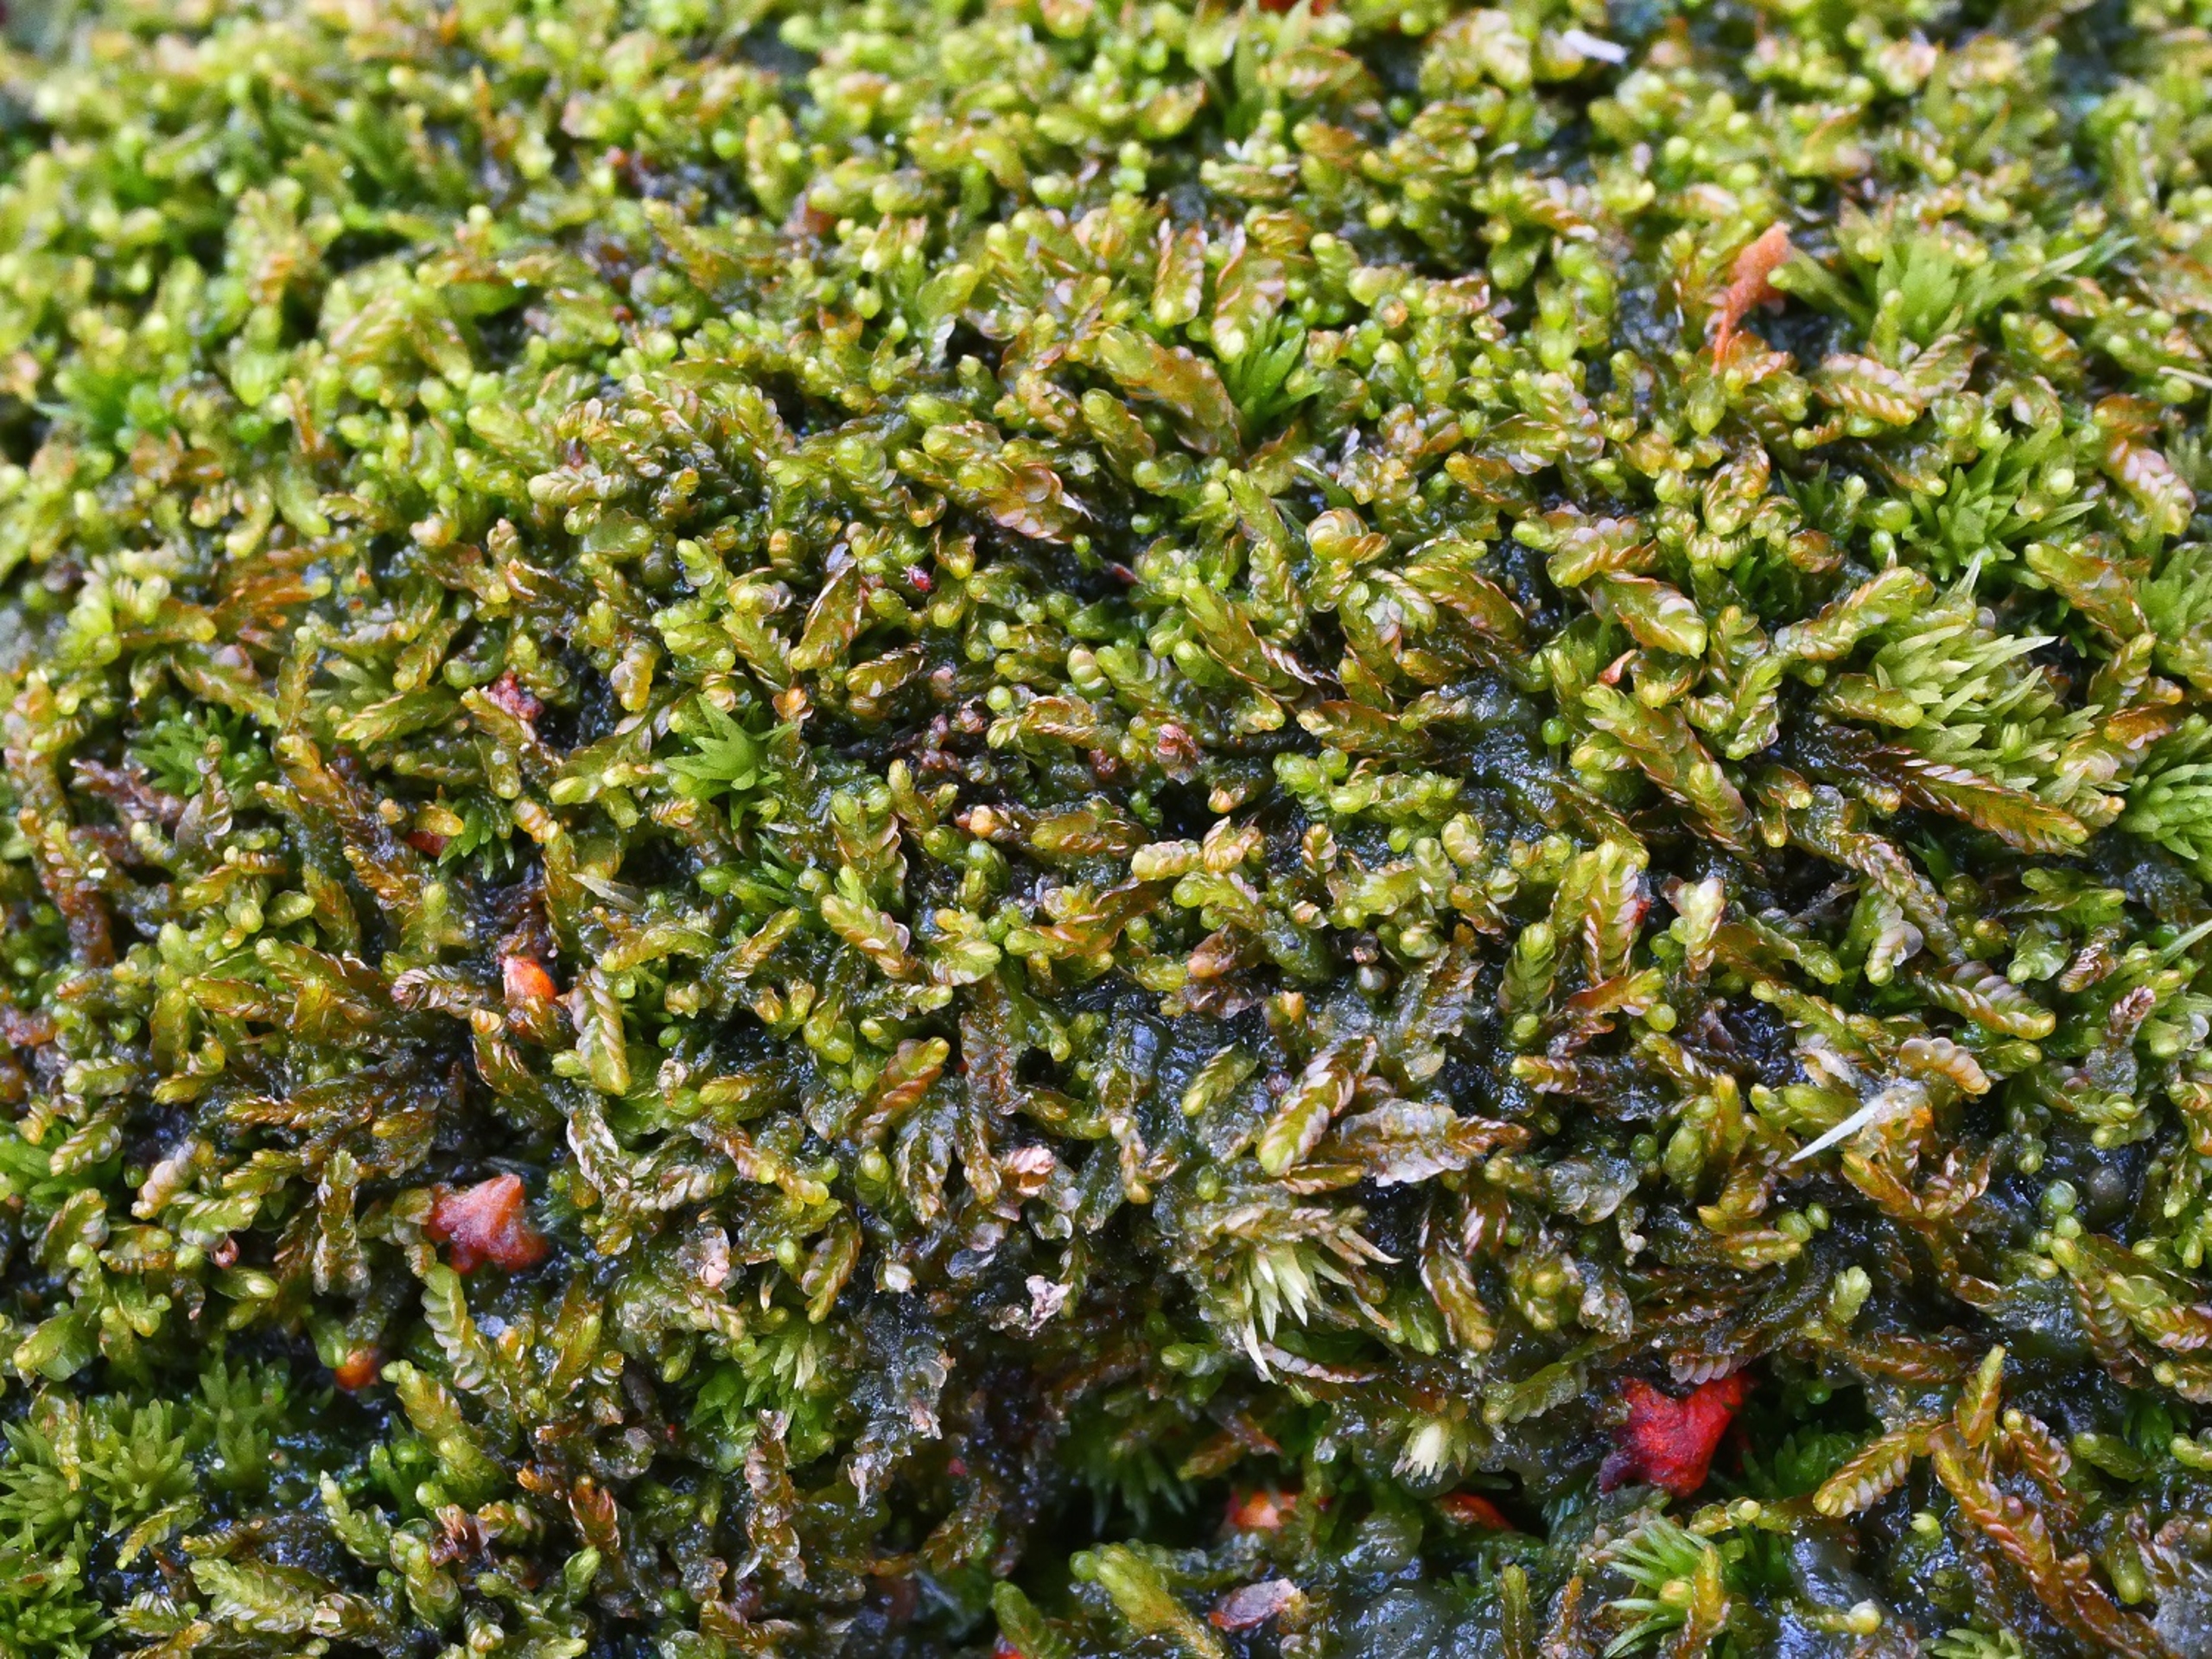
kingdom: Plantae
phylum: Marchantiophyta
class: Jungermanniopsida
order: Jungermanniales
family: Cephaloziaceae
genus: Odontoschisma
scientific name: Odontoschisma sphagni
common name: Almindelig flagelmos
